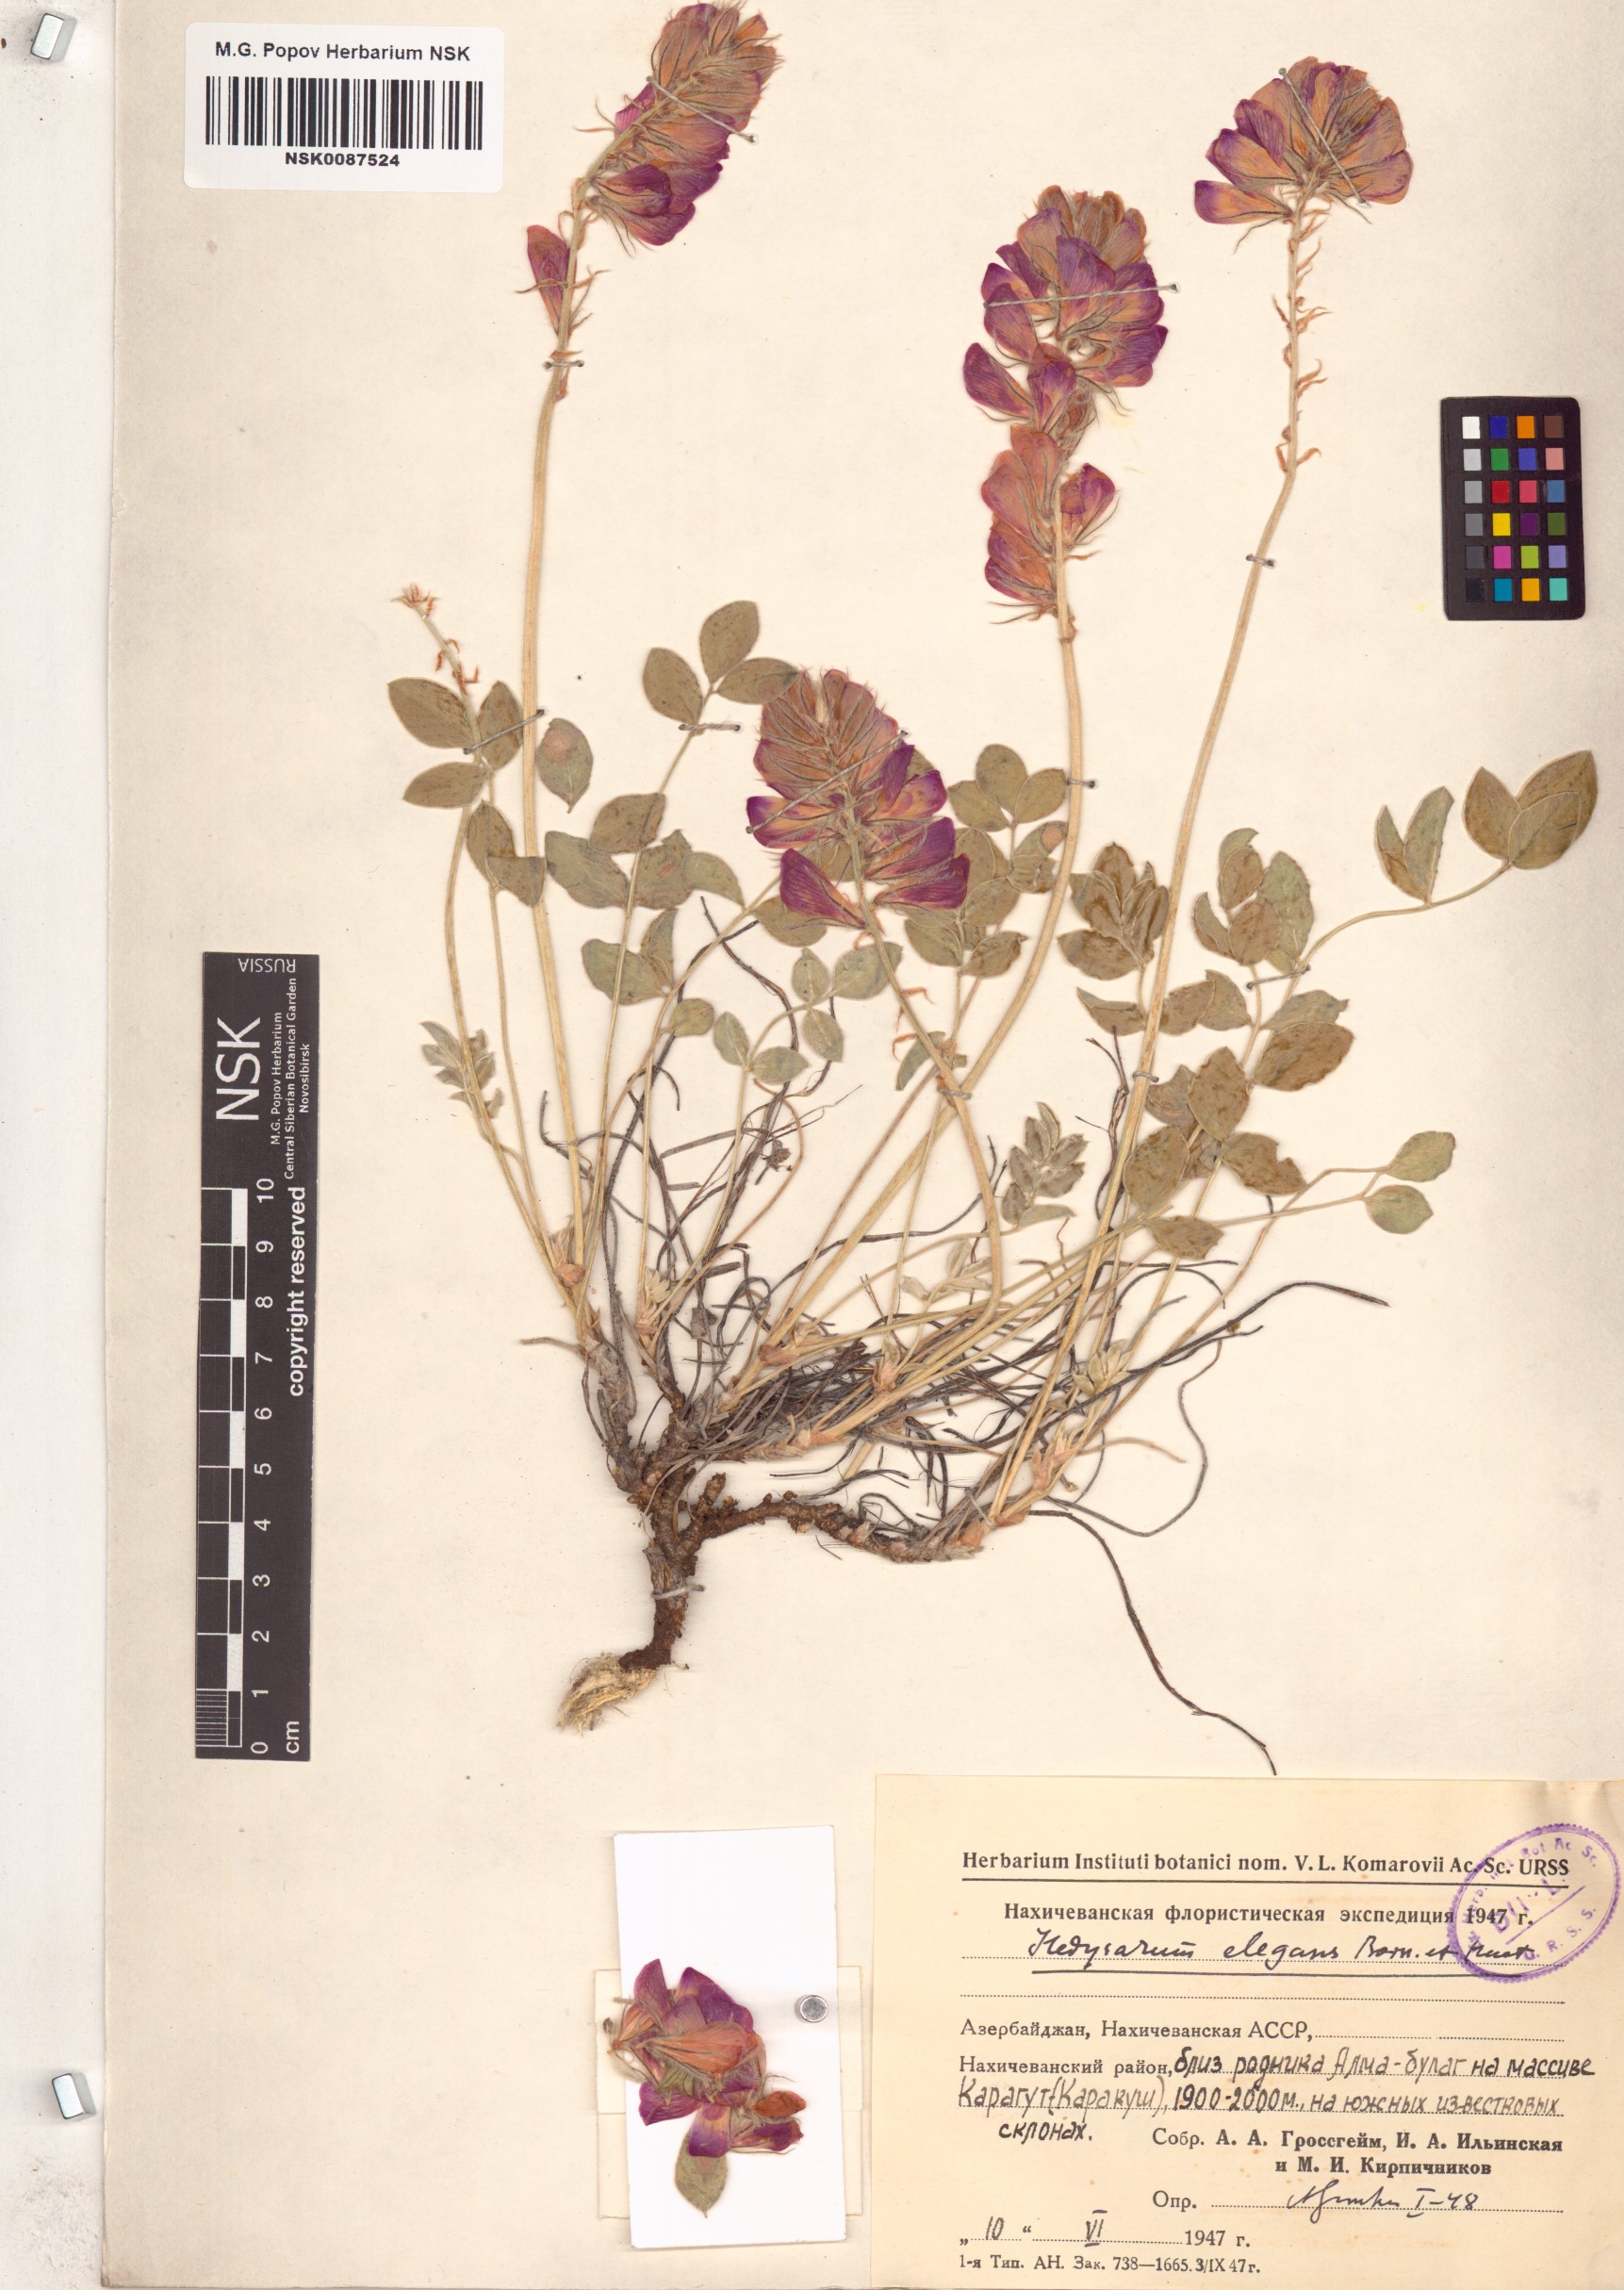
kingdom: Plantae
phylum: Tracheophyta
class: Magnoliopsida
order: Fabales
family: Fabaceae
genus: Hedysarum
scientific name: Hedysarum erzurumianum
